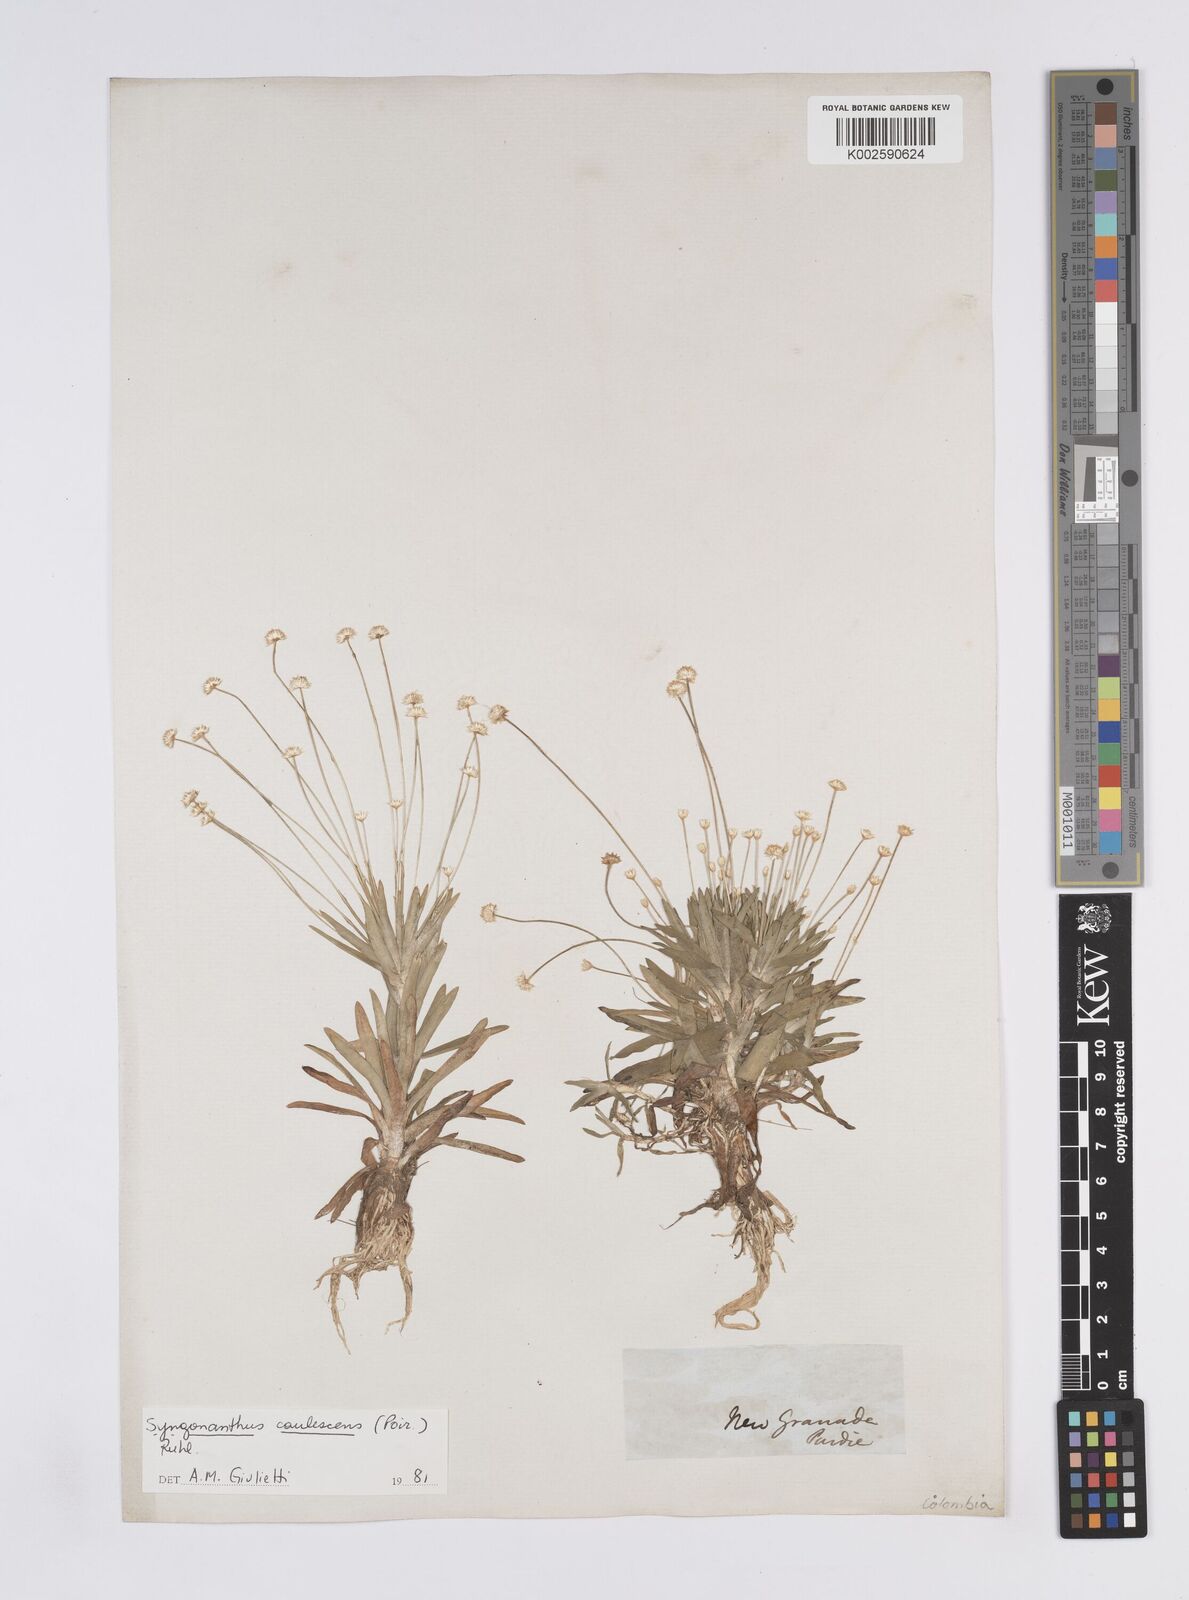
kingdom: Plantae
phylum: Tracheophyta
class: Liliopsida
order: Poales
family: Eriocaulaceae
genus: Syngonanthus
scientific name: Syngonanthus caulescens
